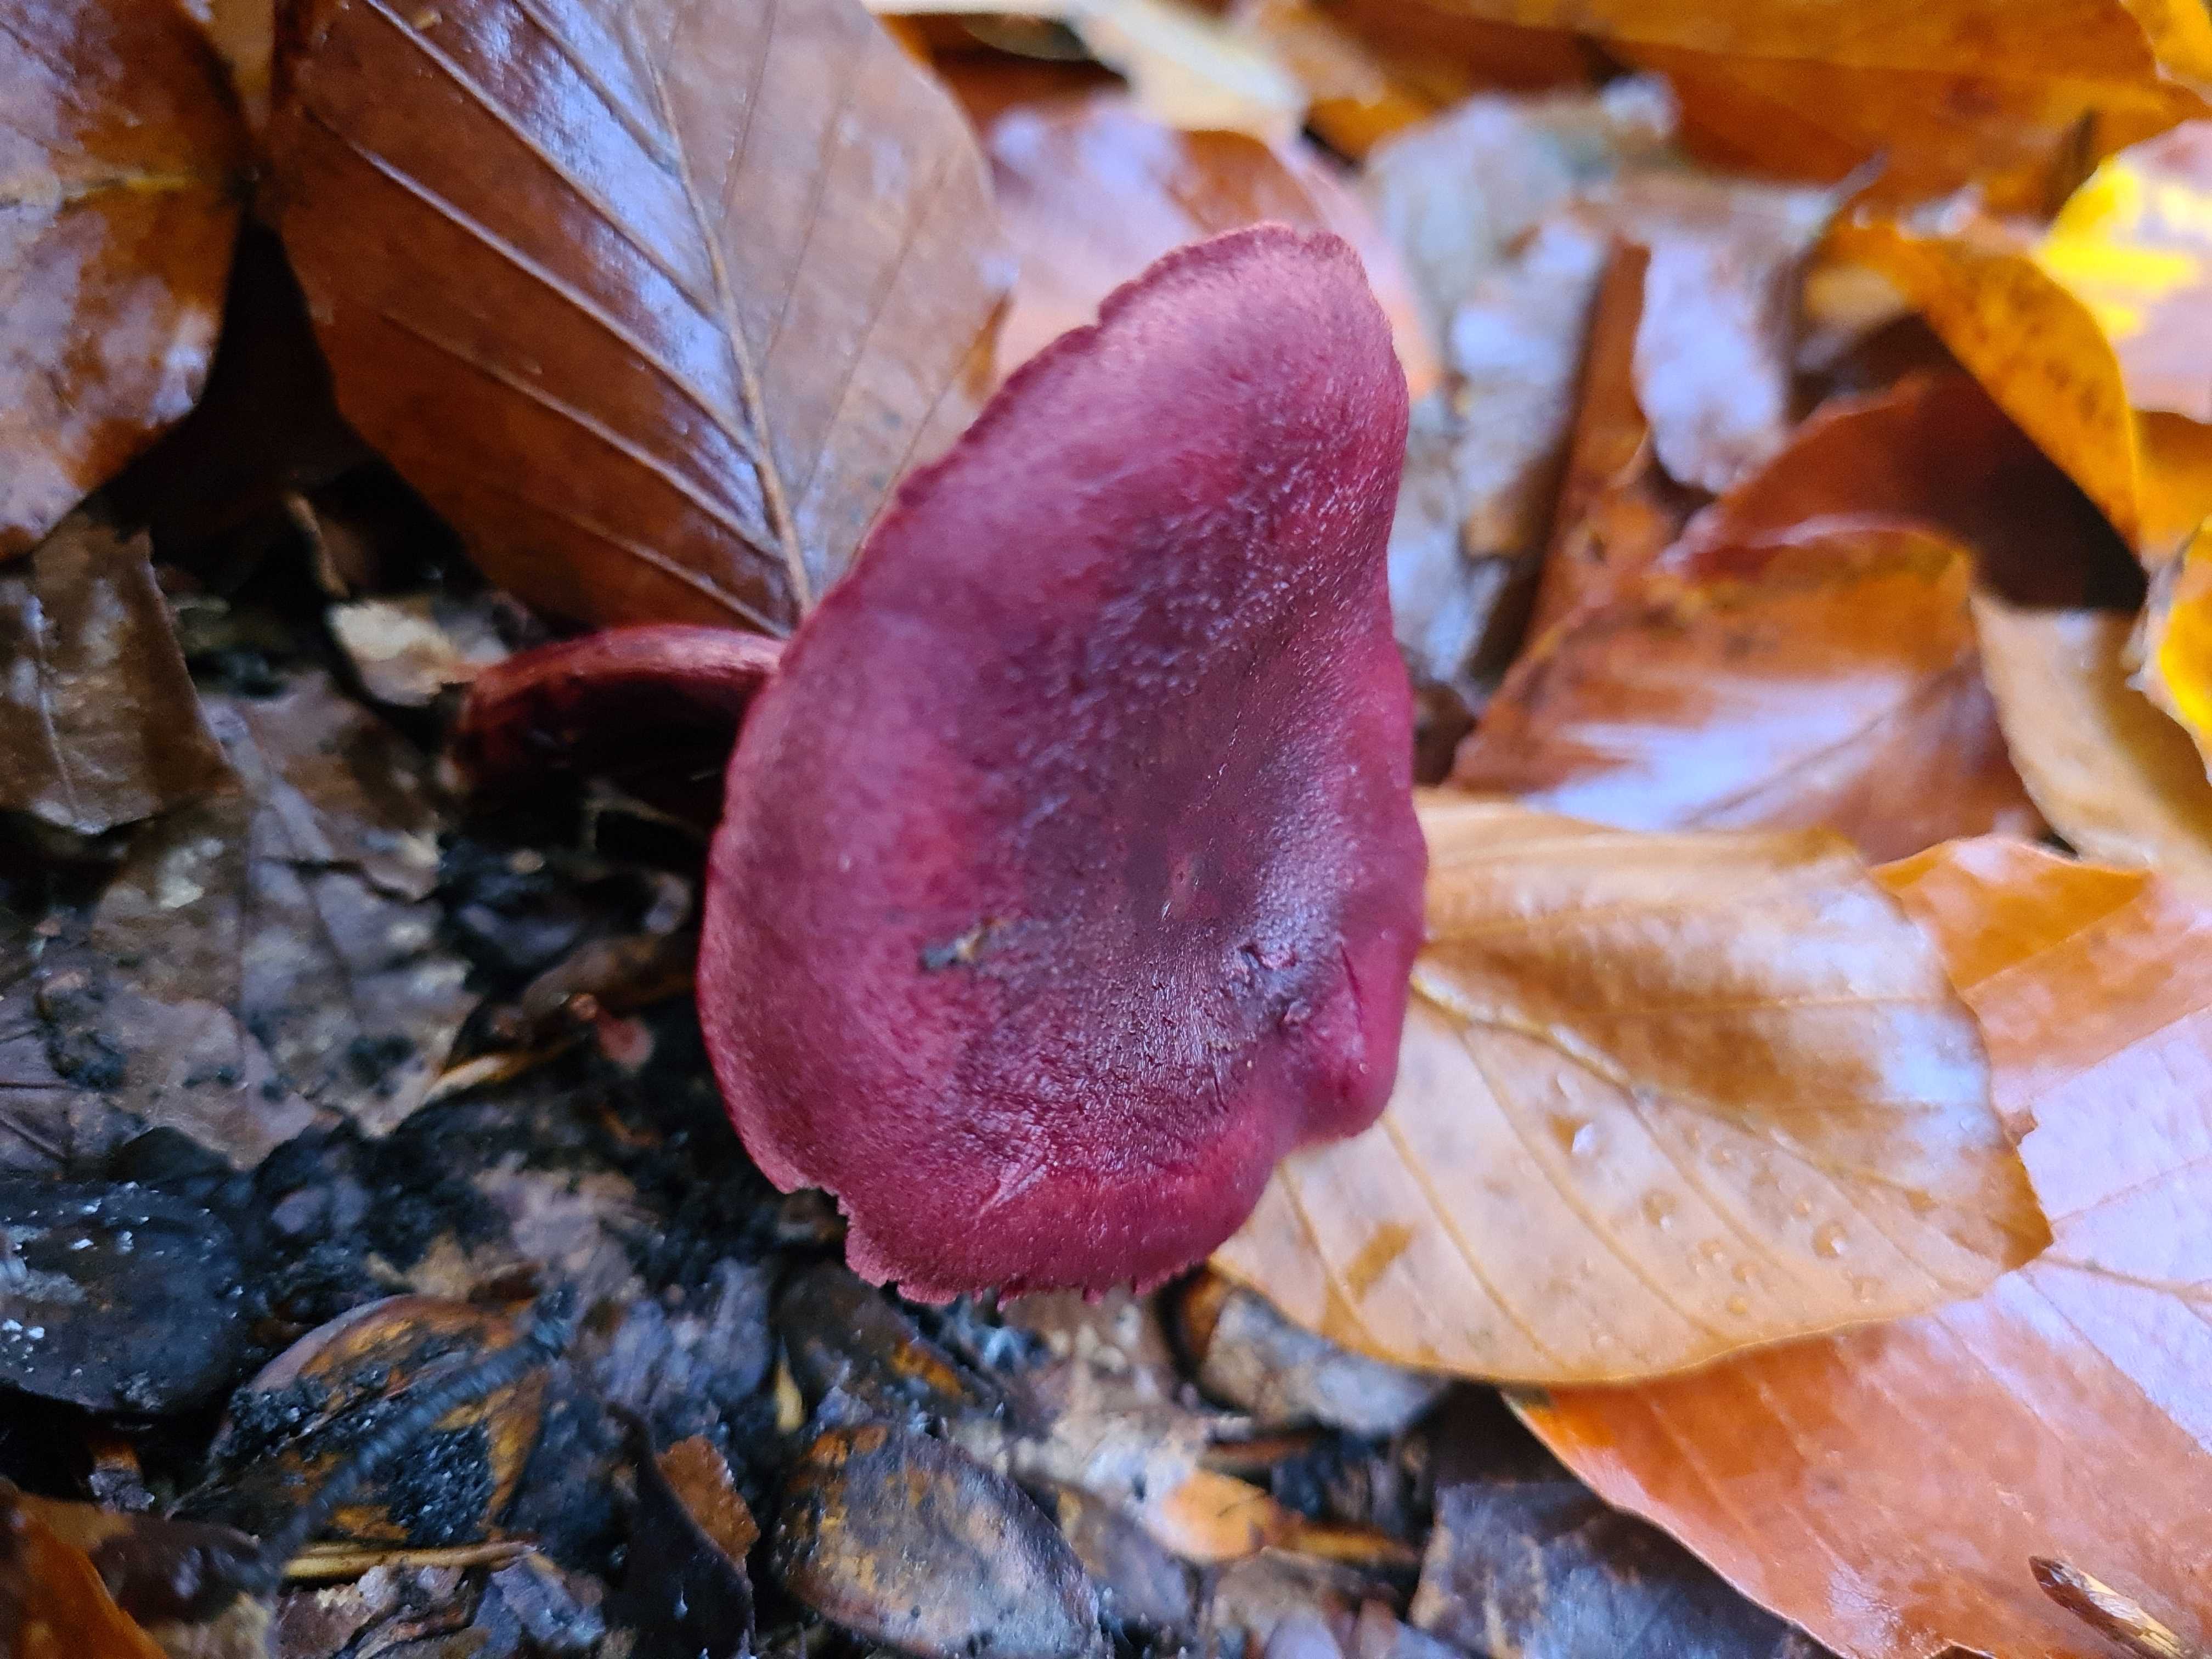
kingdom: Fungi
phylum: Basidiomycota
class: Agaricomycetes
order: Agaricales
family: Cortinariaceae
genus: Cortinarius
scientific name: Cortinarius sanguineus
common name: Bloodred webcap
